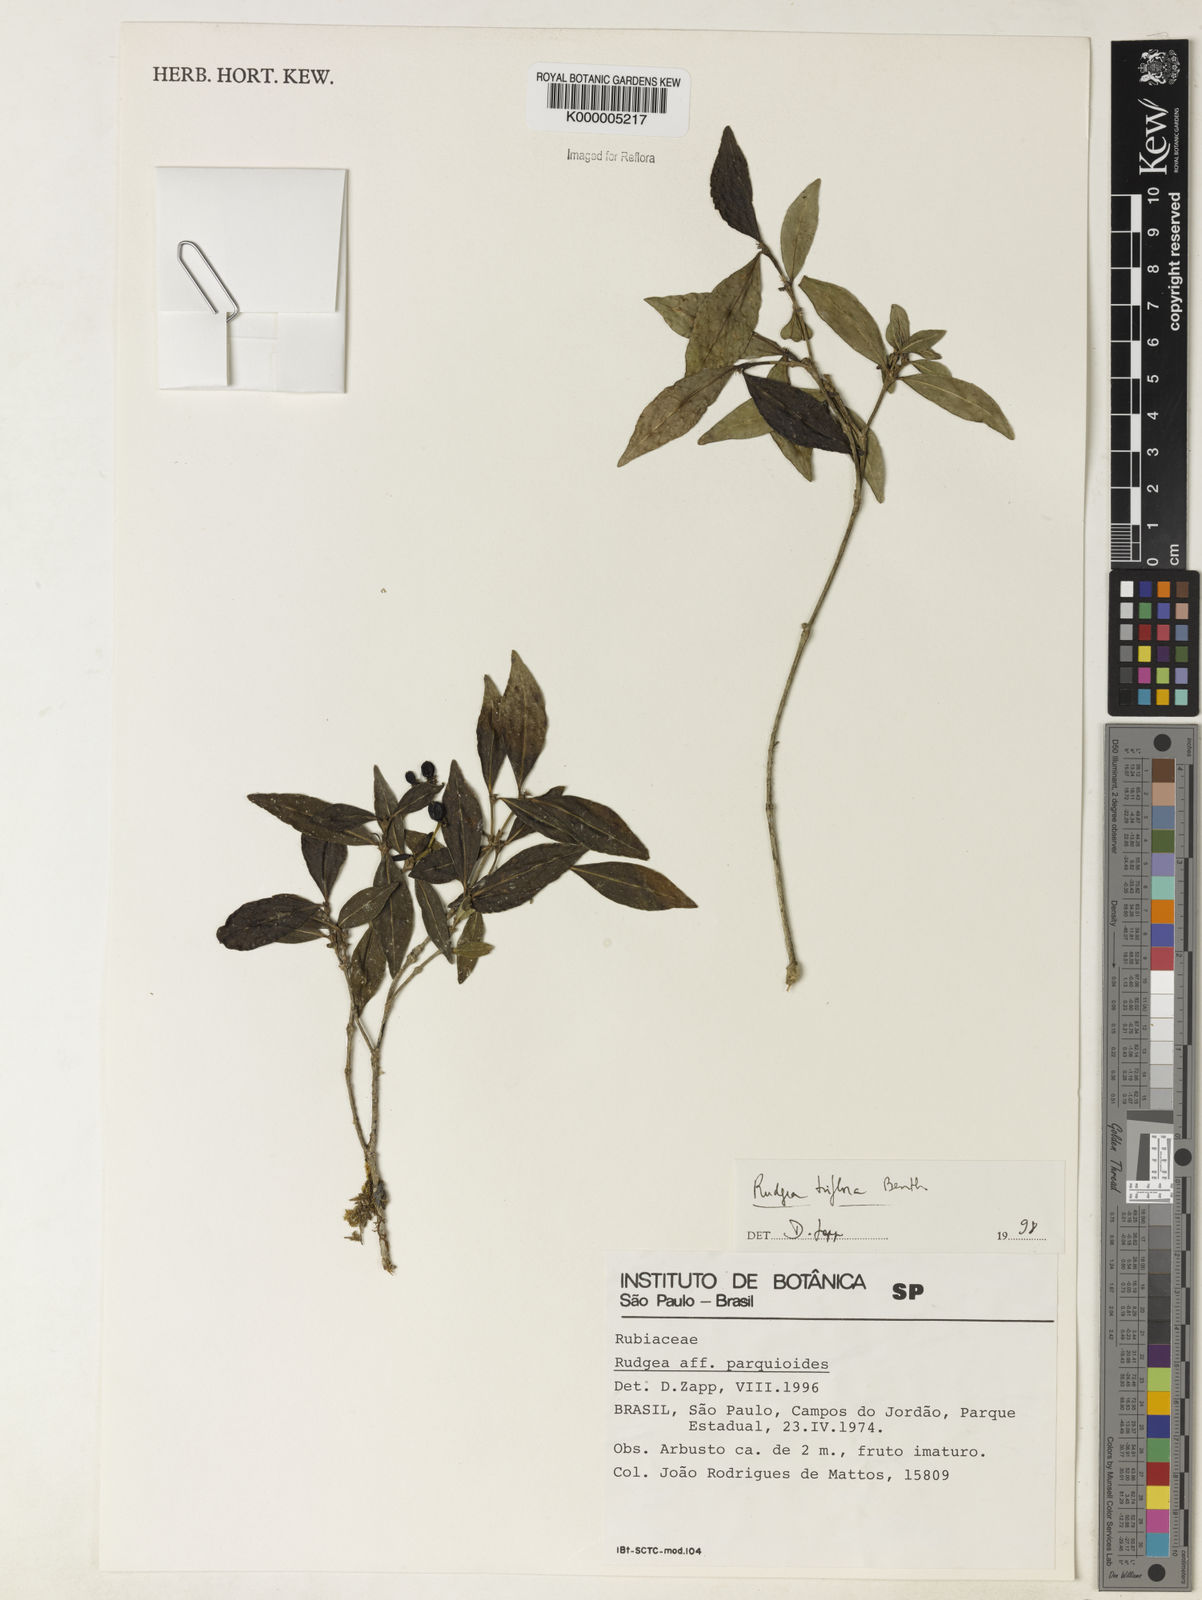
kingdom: Plantae
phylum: Tracheophyta
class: Magnoliopsida
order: Gentianales
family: Rubiaceae
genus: Rudgea
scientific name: Rudgea triflora
